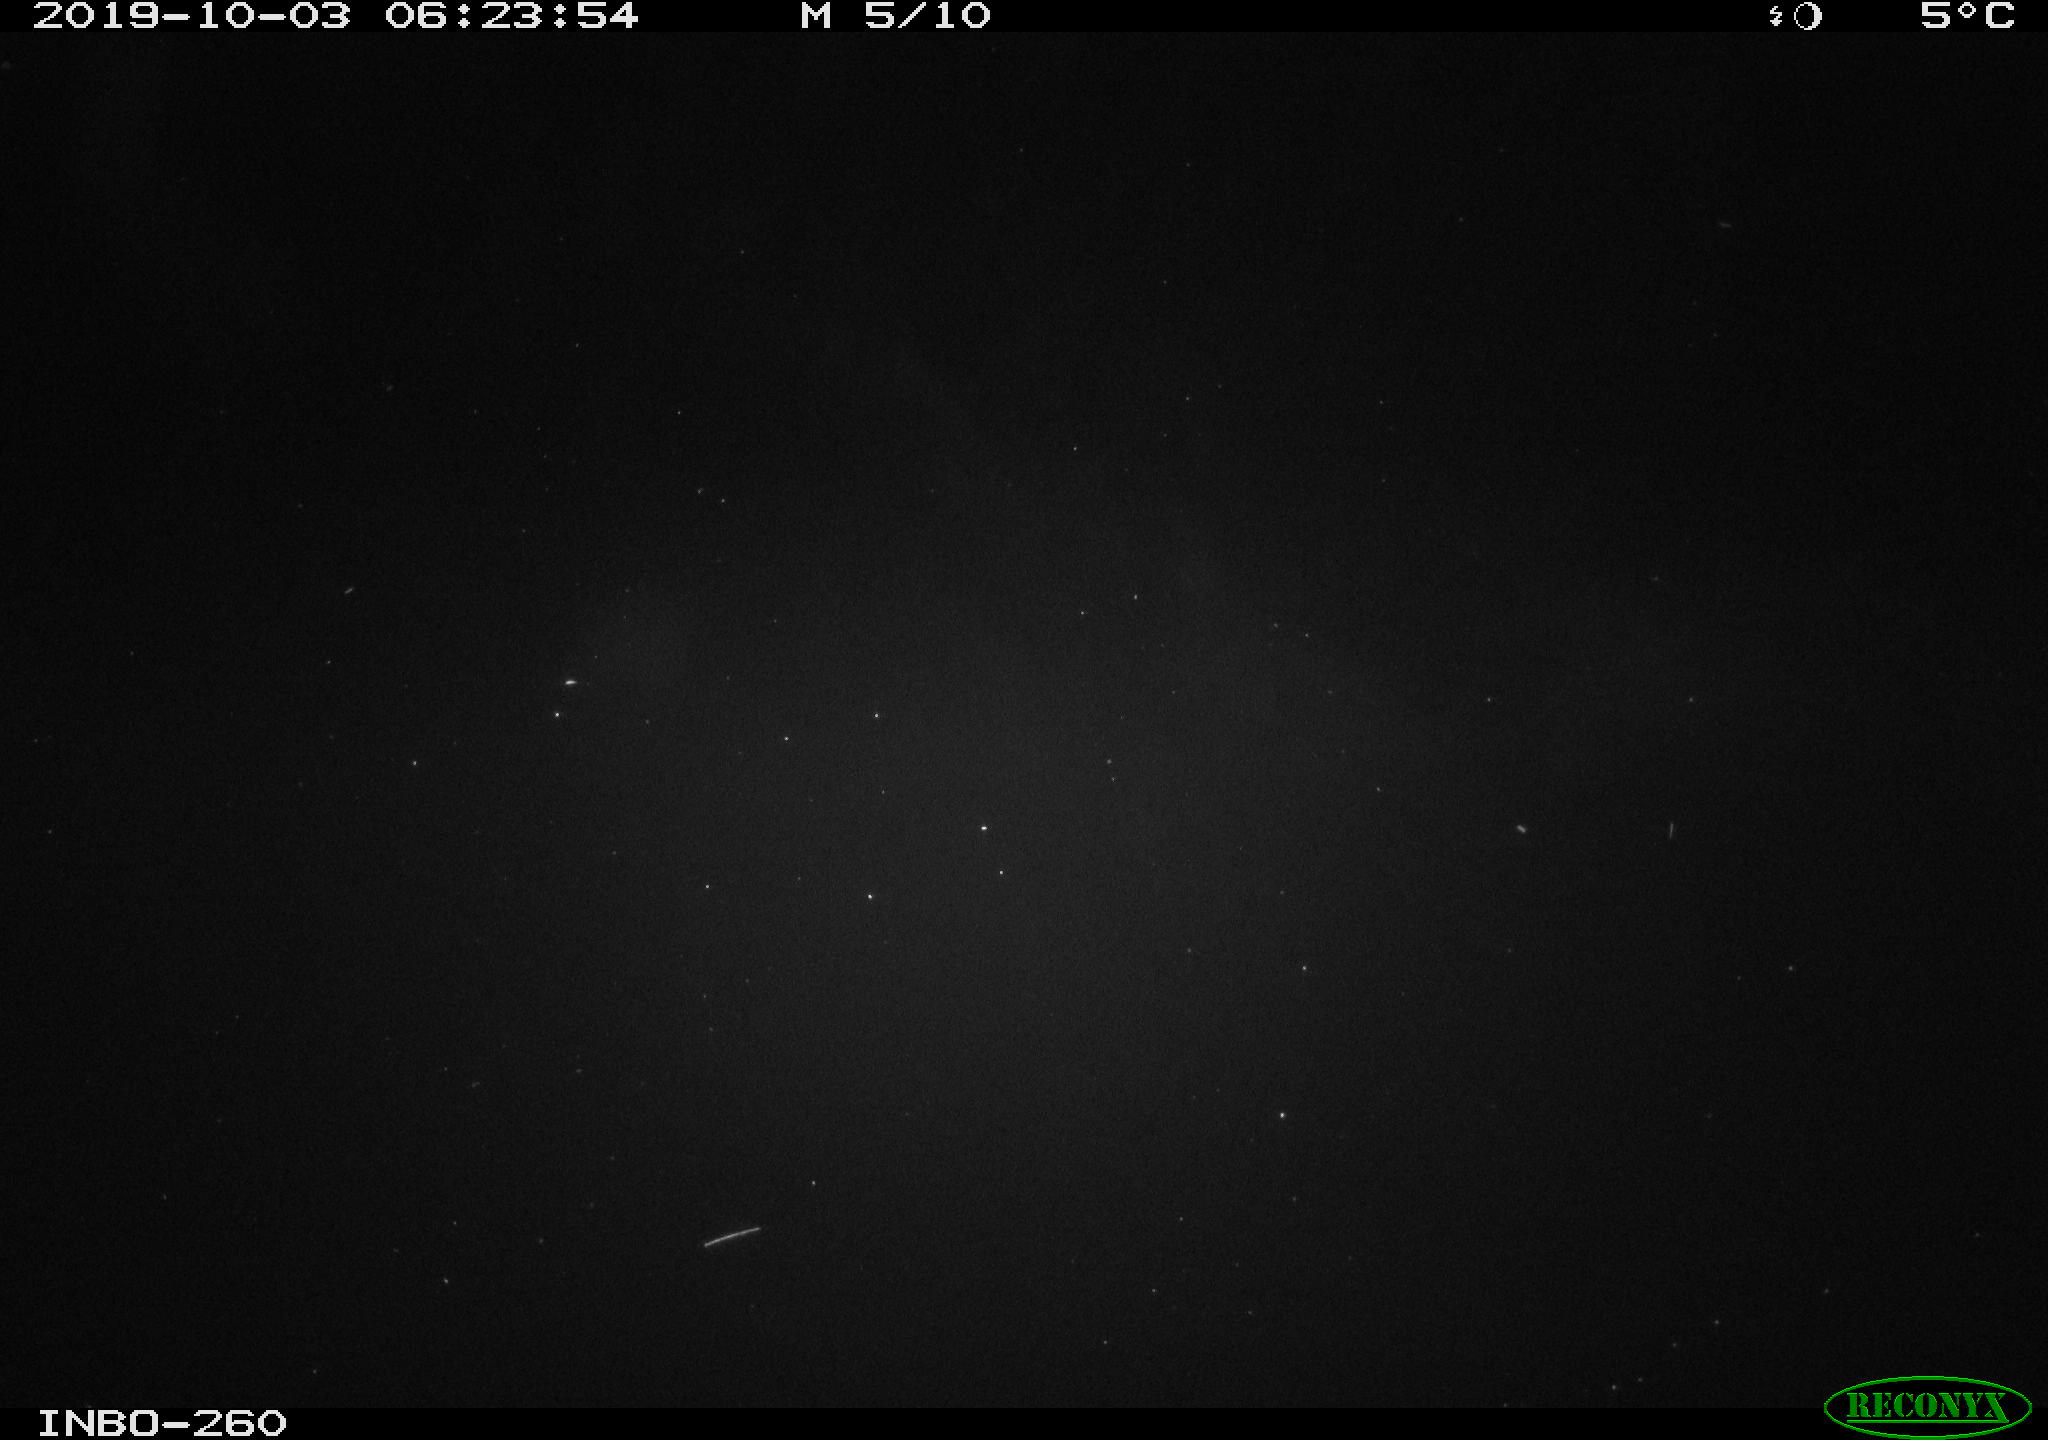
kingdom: Animalia
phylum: Chordata
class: Aves
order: Anseriformes
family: Anatidae
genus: Anas
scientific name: Anas platyrhynchos
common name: Mallard
